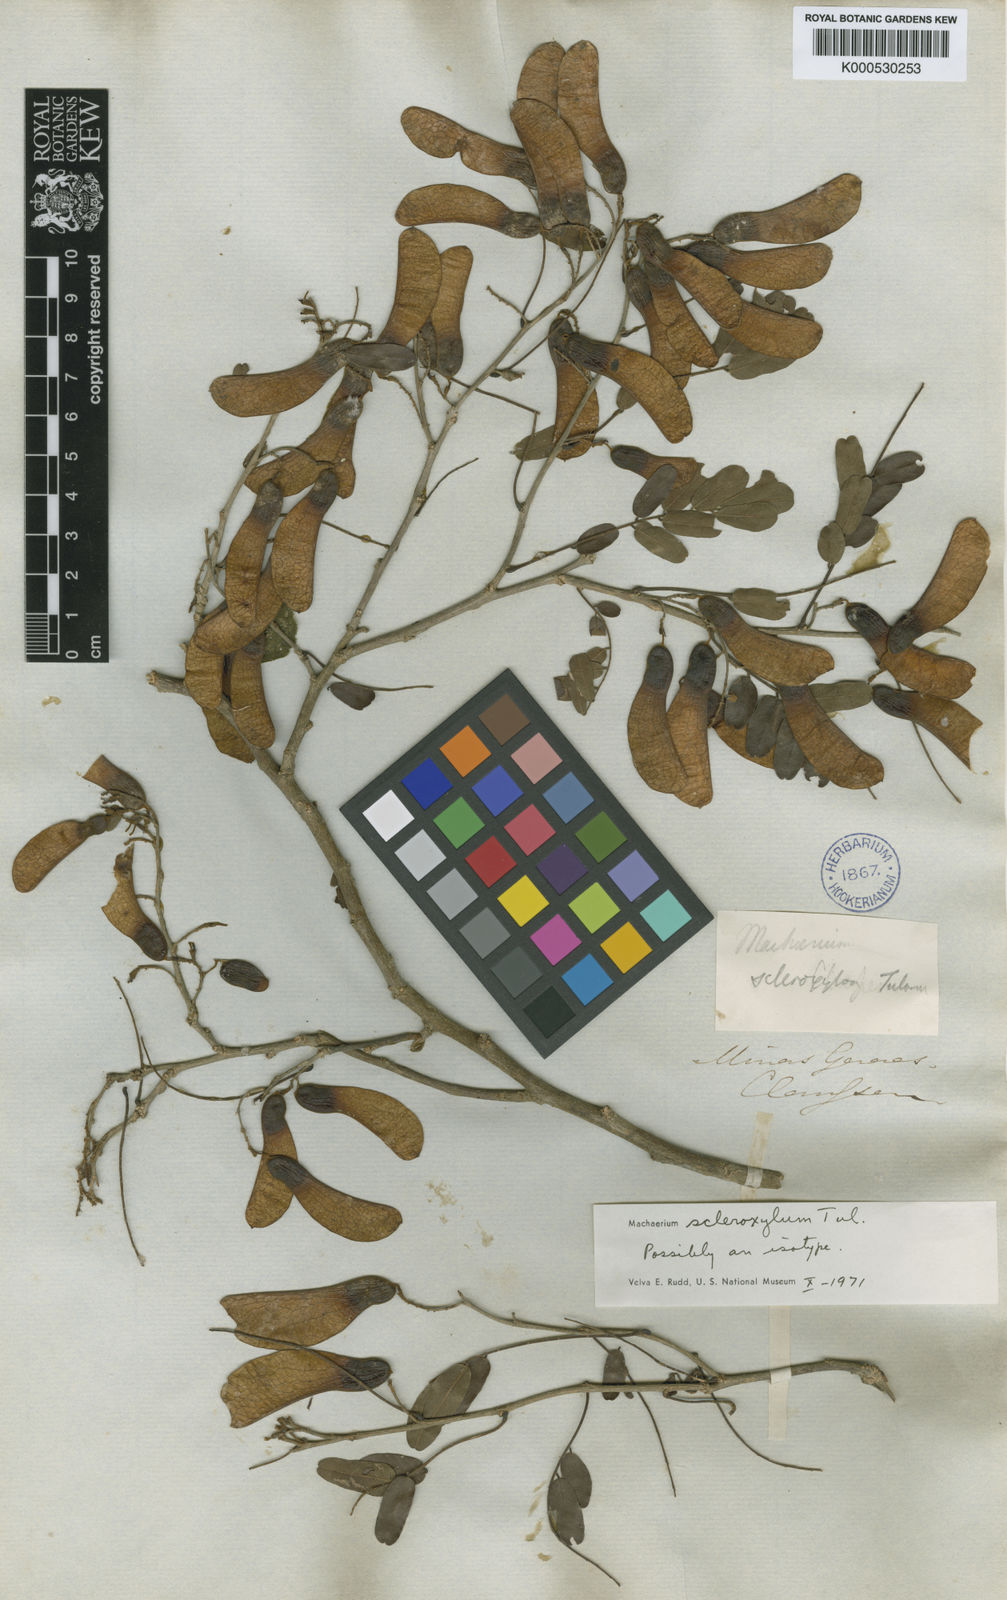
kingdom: Plantae
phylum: Tracheophyta
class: Magnoliopsida
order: Fabales
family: Fabaceae
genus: Machaerium
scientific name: Machaerium scleroxylon
